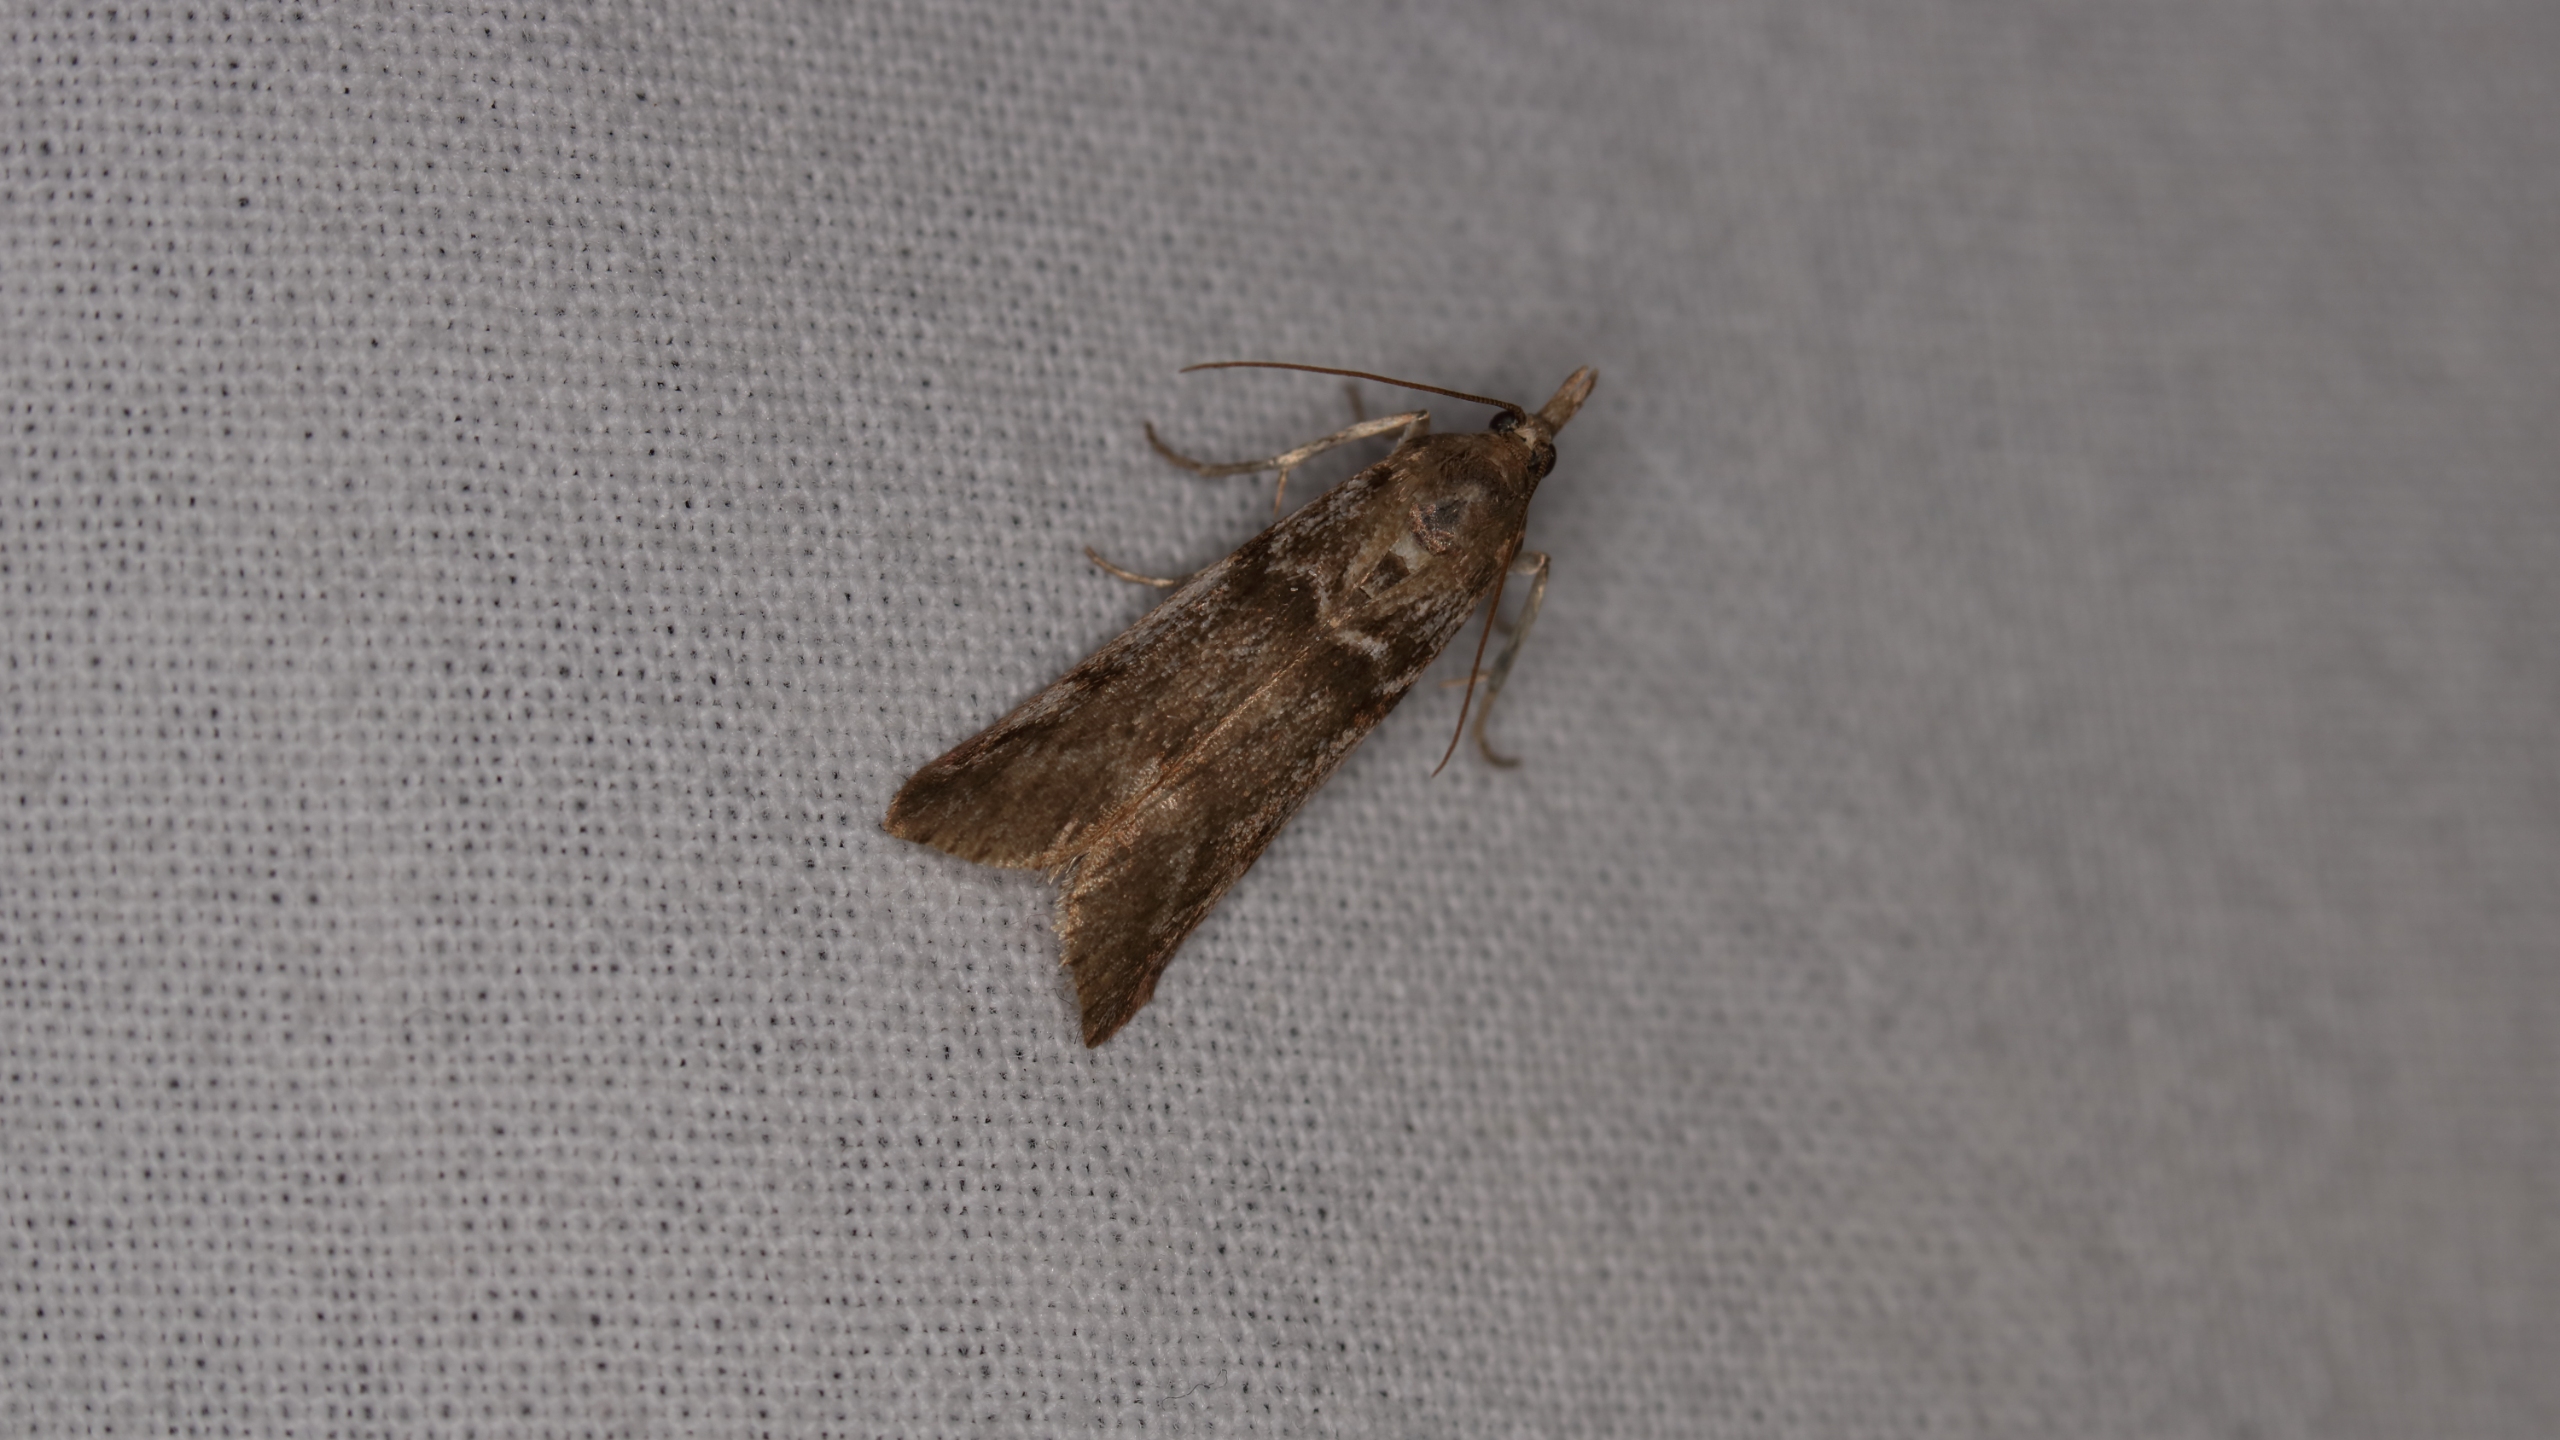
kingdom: Animalia
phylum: Arthropoda
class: Insecta
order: Lepidoptera
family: Pyralidae
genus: Zophodia
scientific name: Zophodia convolutella
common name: Stikkelsbærhalvmøl
